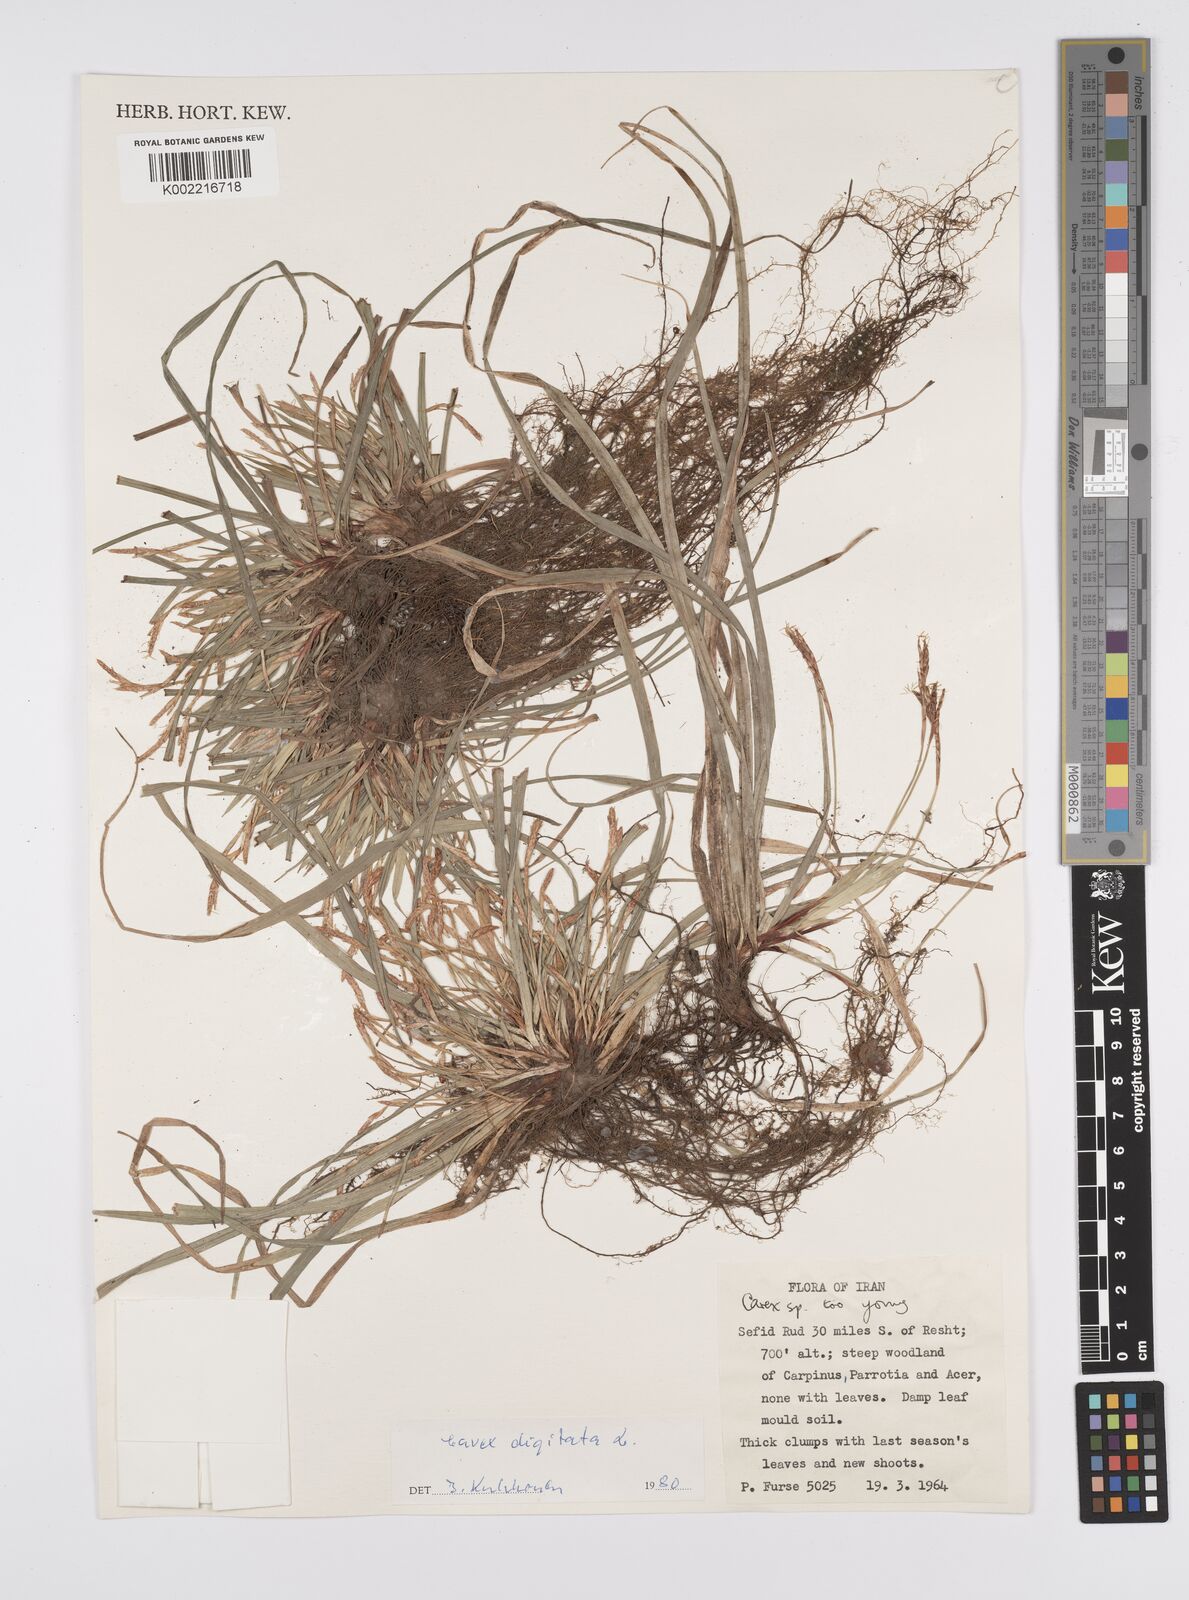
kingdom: Plantae
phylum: Tracheophyta
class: Liliopsida
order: Poales
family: Cyperaceae
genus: Carex
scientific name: Carex digitata
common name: Fingered sedge
